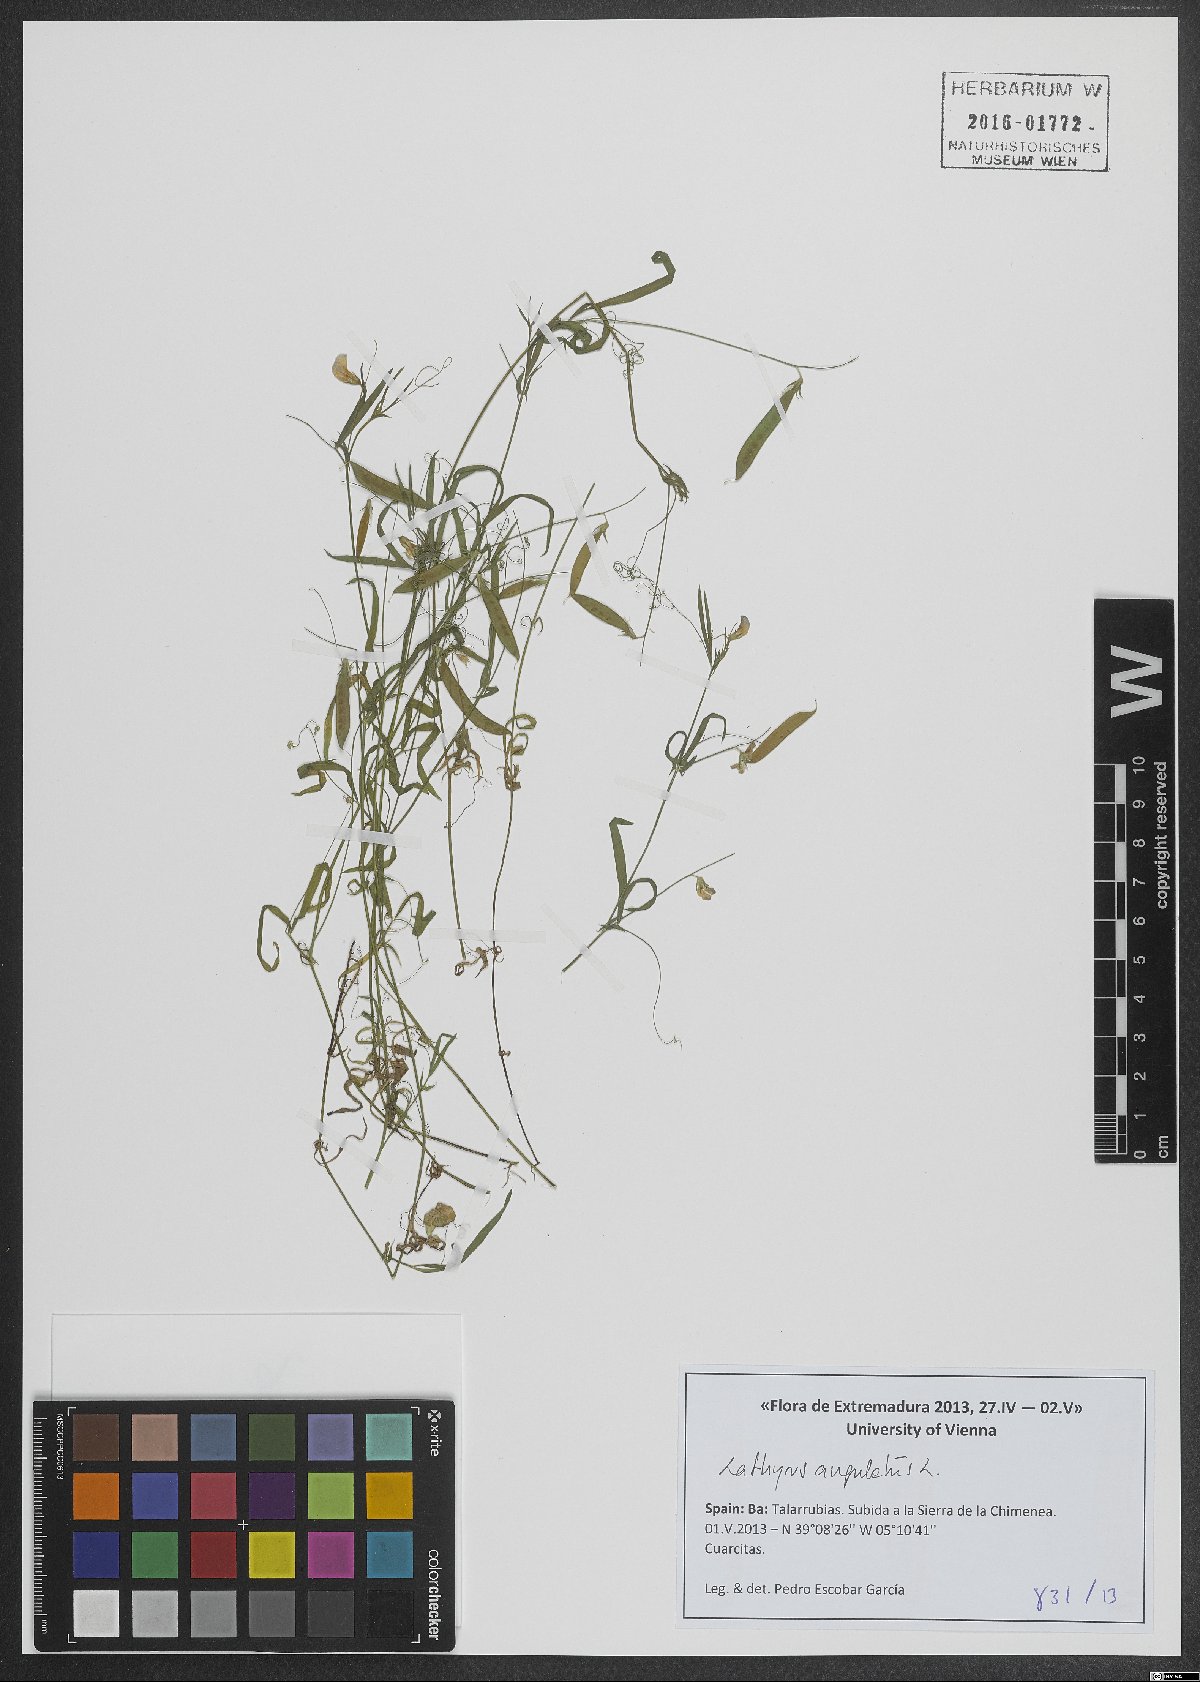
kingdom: Plantae
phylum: Tracheophyta
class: Magnoliopsida
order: Fabales
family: Fabaceae
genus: Lathyrus
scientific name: Lathyrus angulatus
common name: Angular pea
